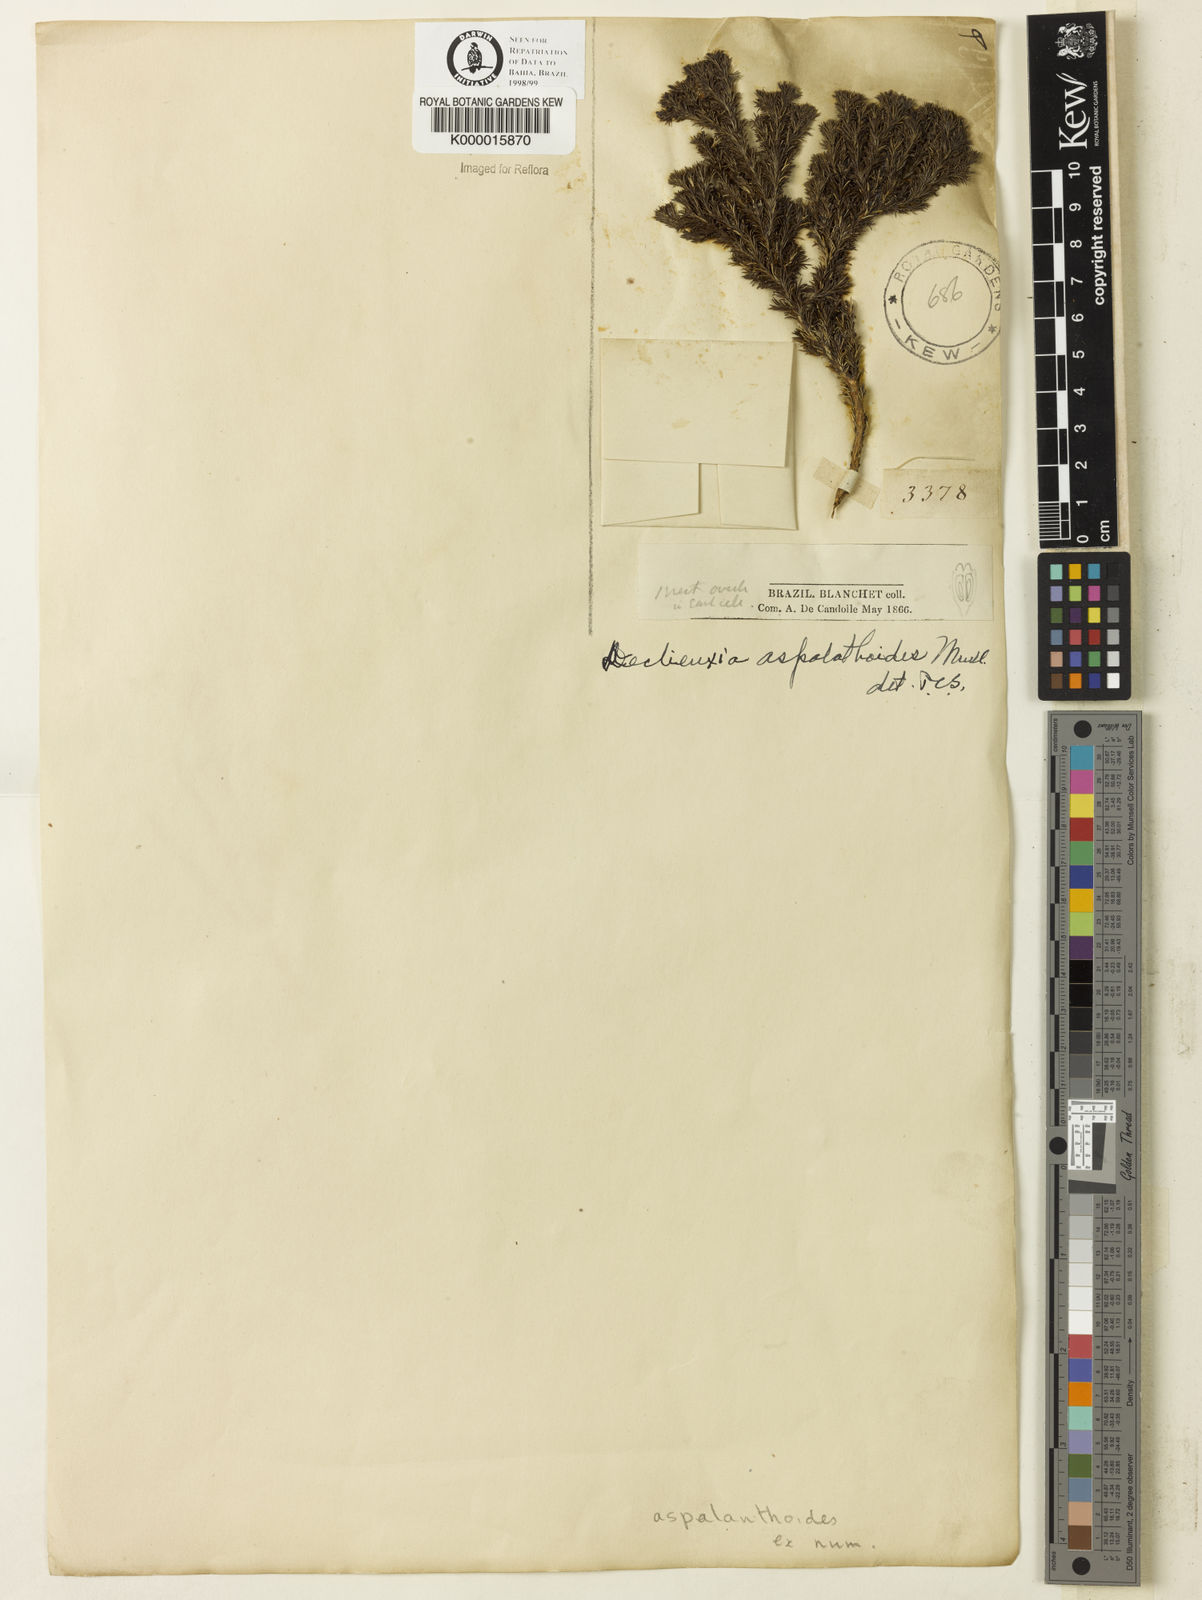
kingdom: Plantae
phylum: Tracheophyta
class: Magnoliopsida
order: Gentianales
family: Rubiaceae
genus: Declieuxia
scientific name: Declieuxia aspalathoides
